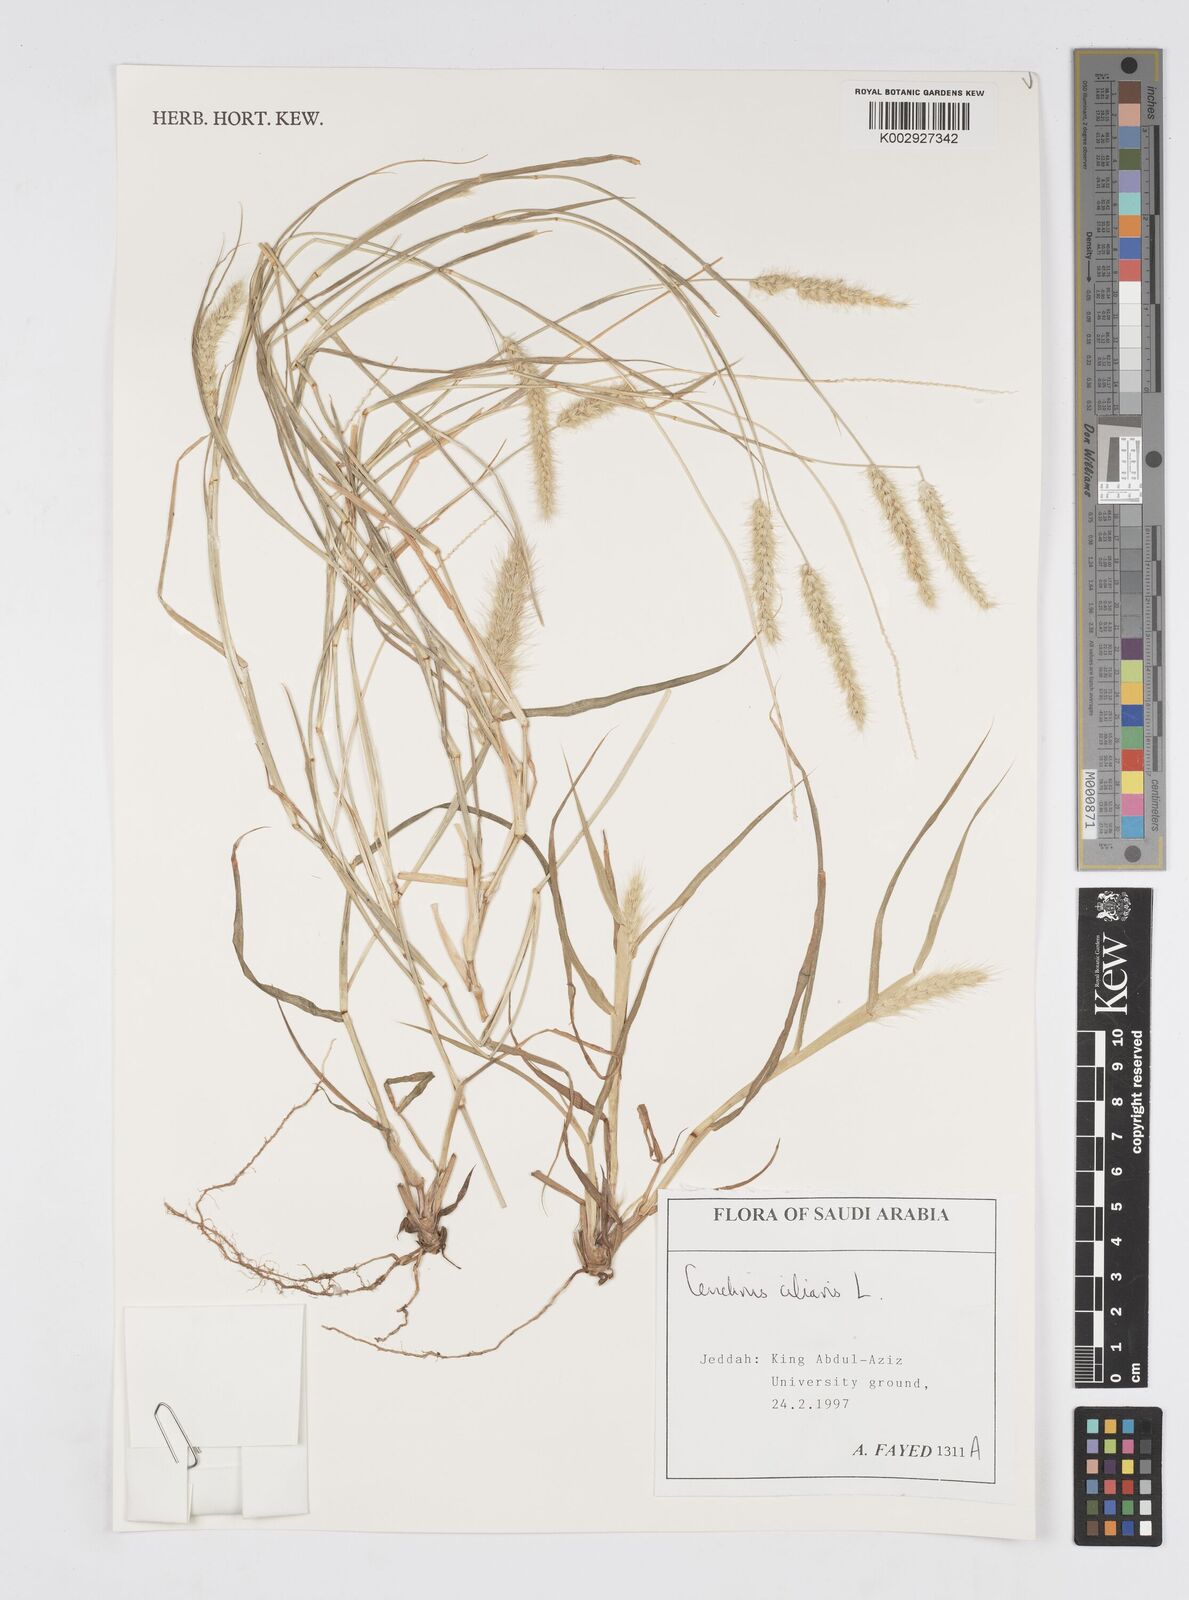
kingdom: Plantae
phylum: Tracheophyta
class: Liliopsida
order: Poales
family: Poaceae
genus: Cenchrus
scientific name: Cenchrus ciliaris
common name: Buffelgrass
